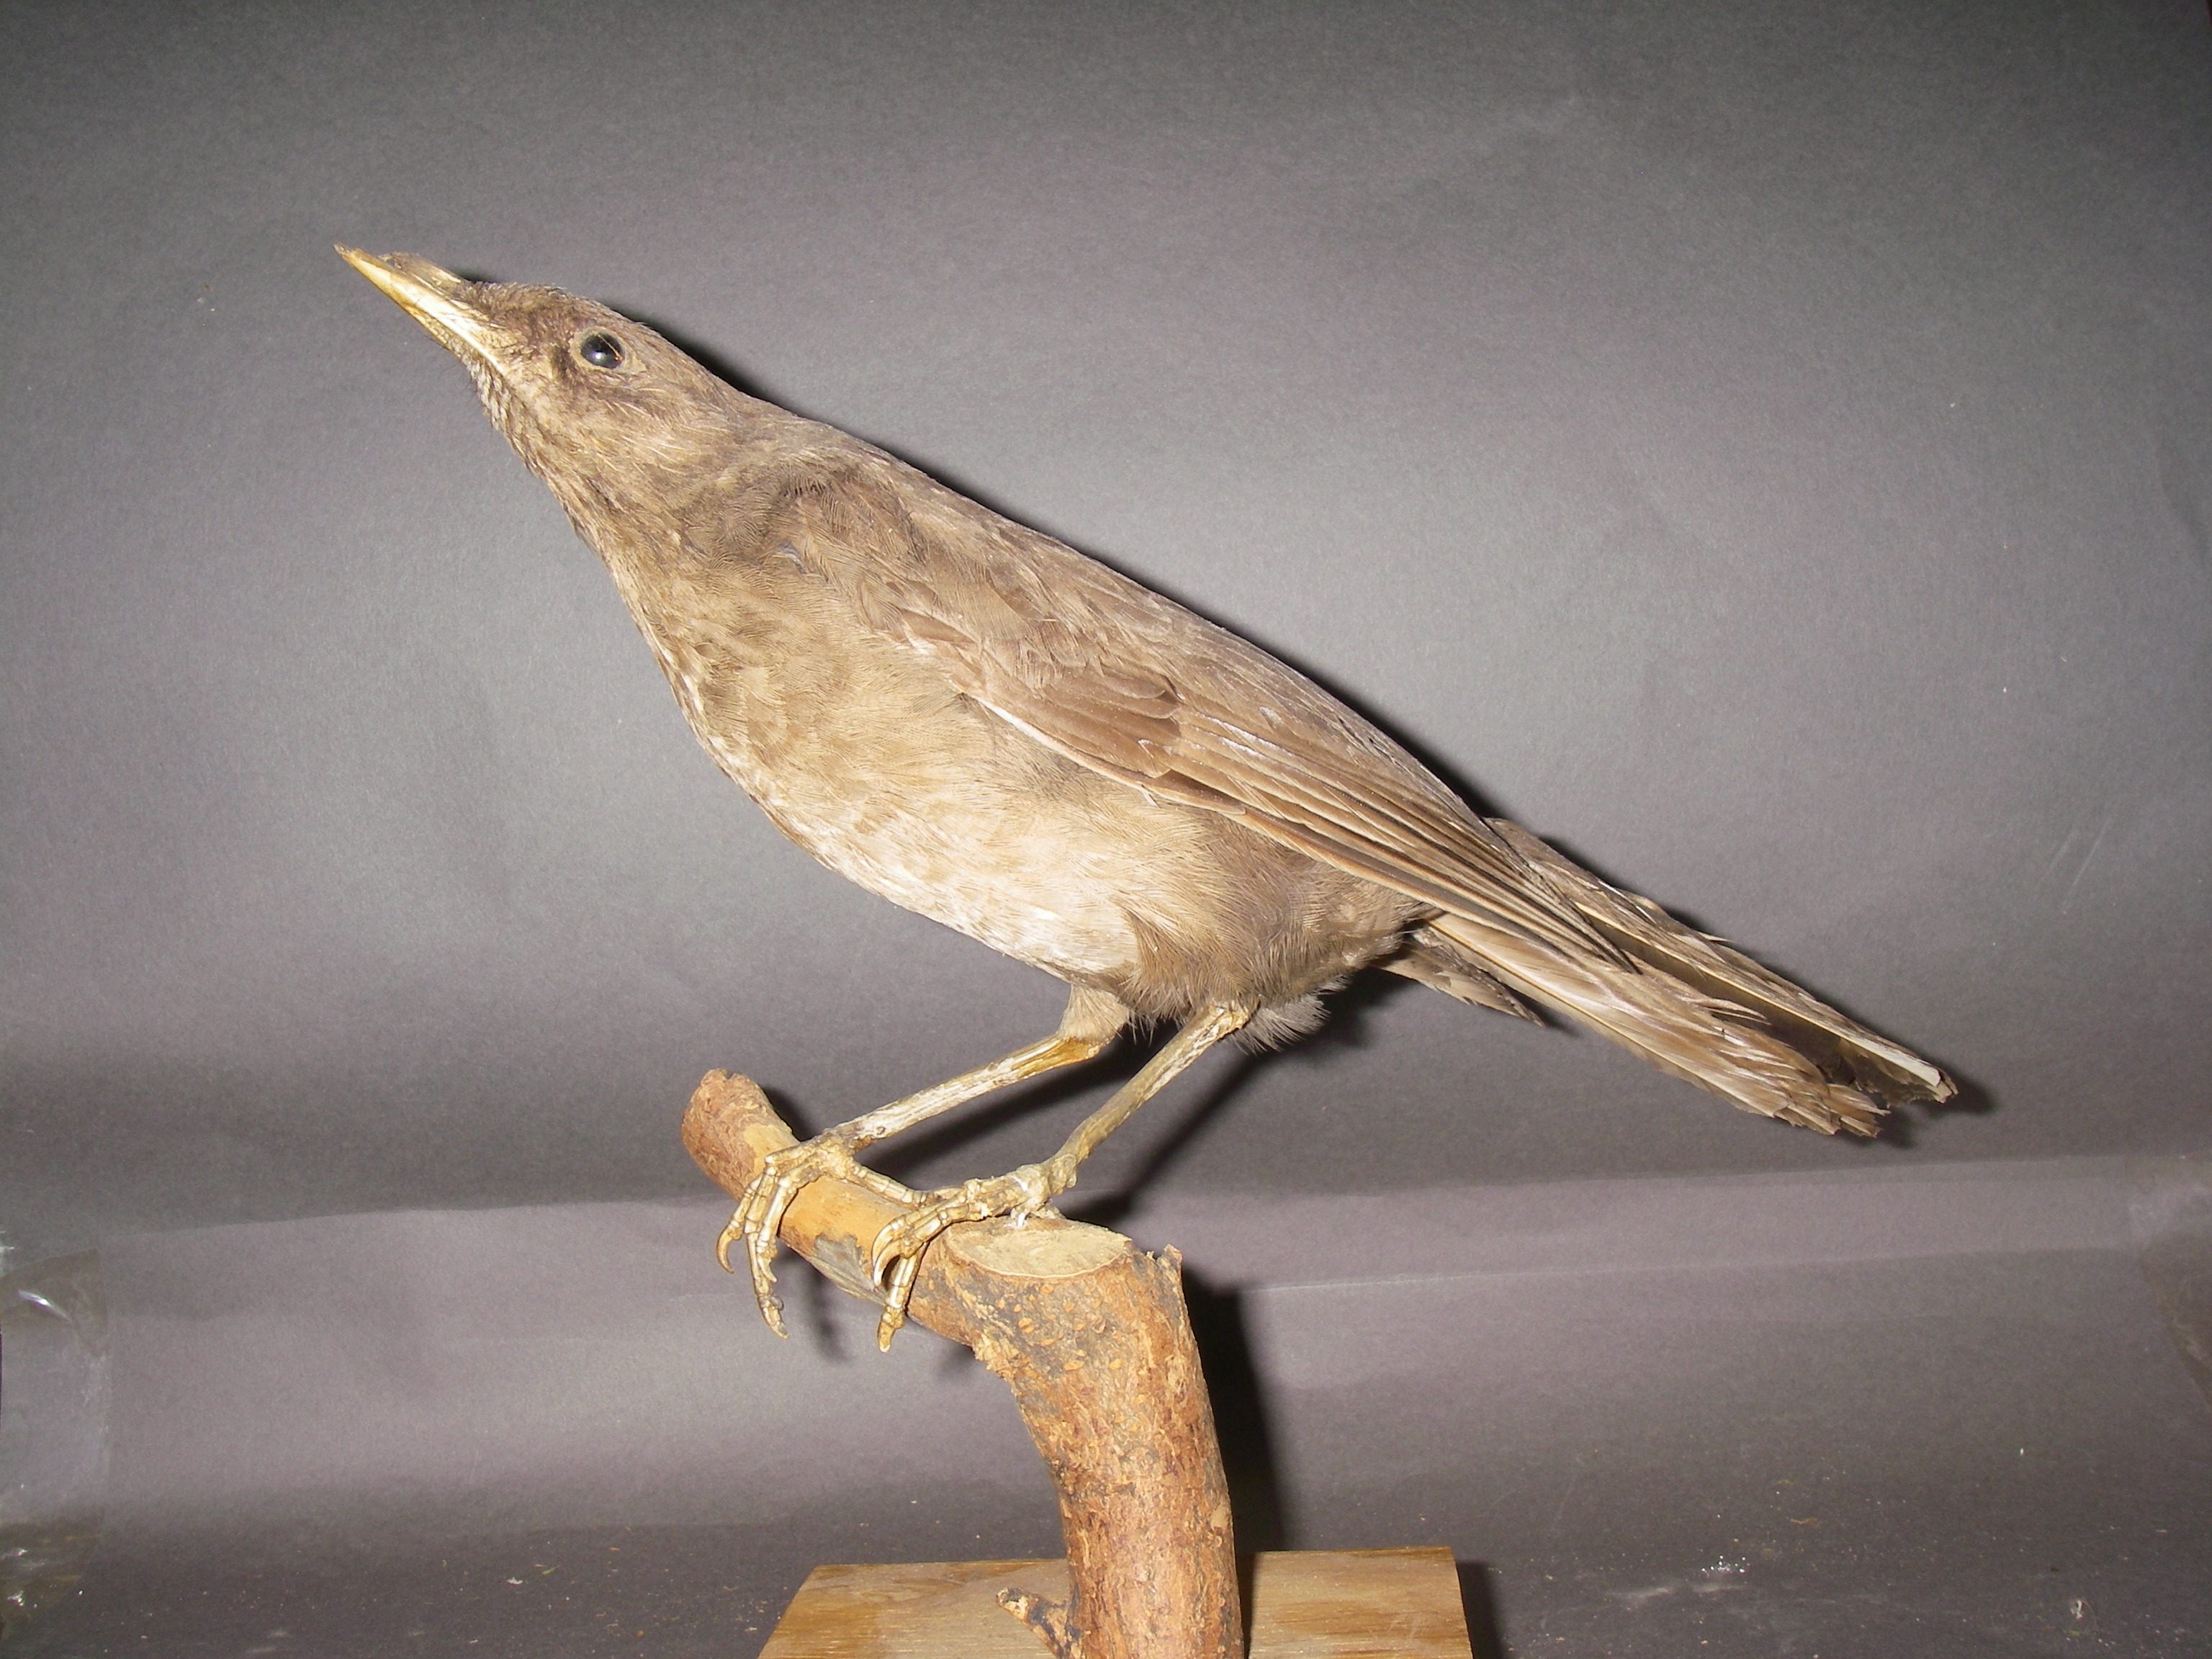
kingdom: Animalia
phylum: Chordata
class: Aves
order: Passeriformes
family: Turdidae
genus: Turdus
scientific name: Turdus fuscater
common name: Great thrush
